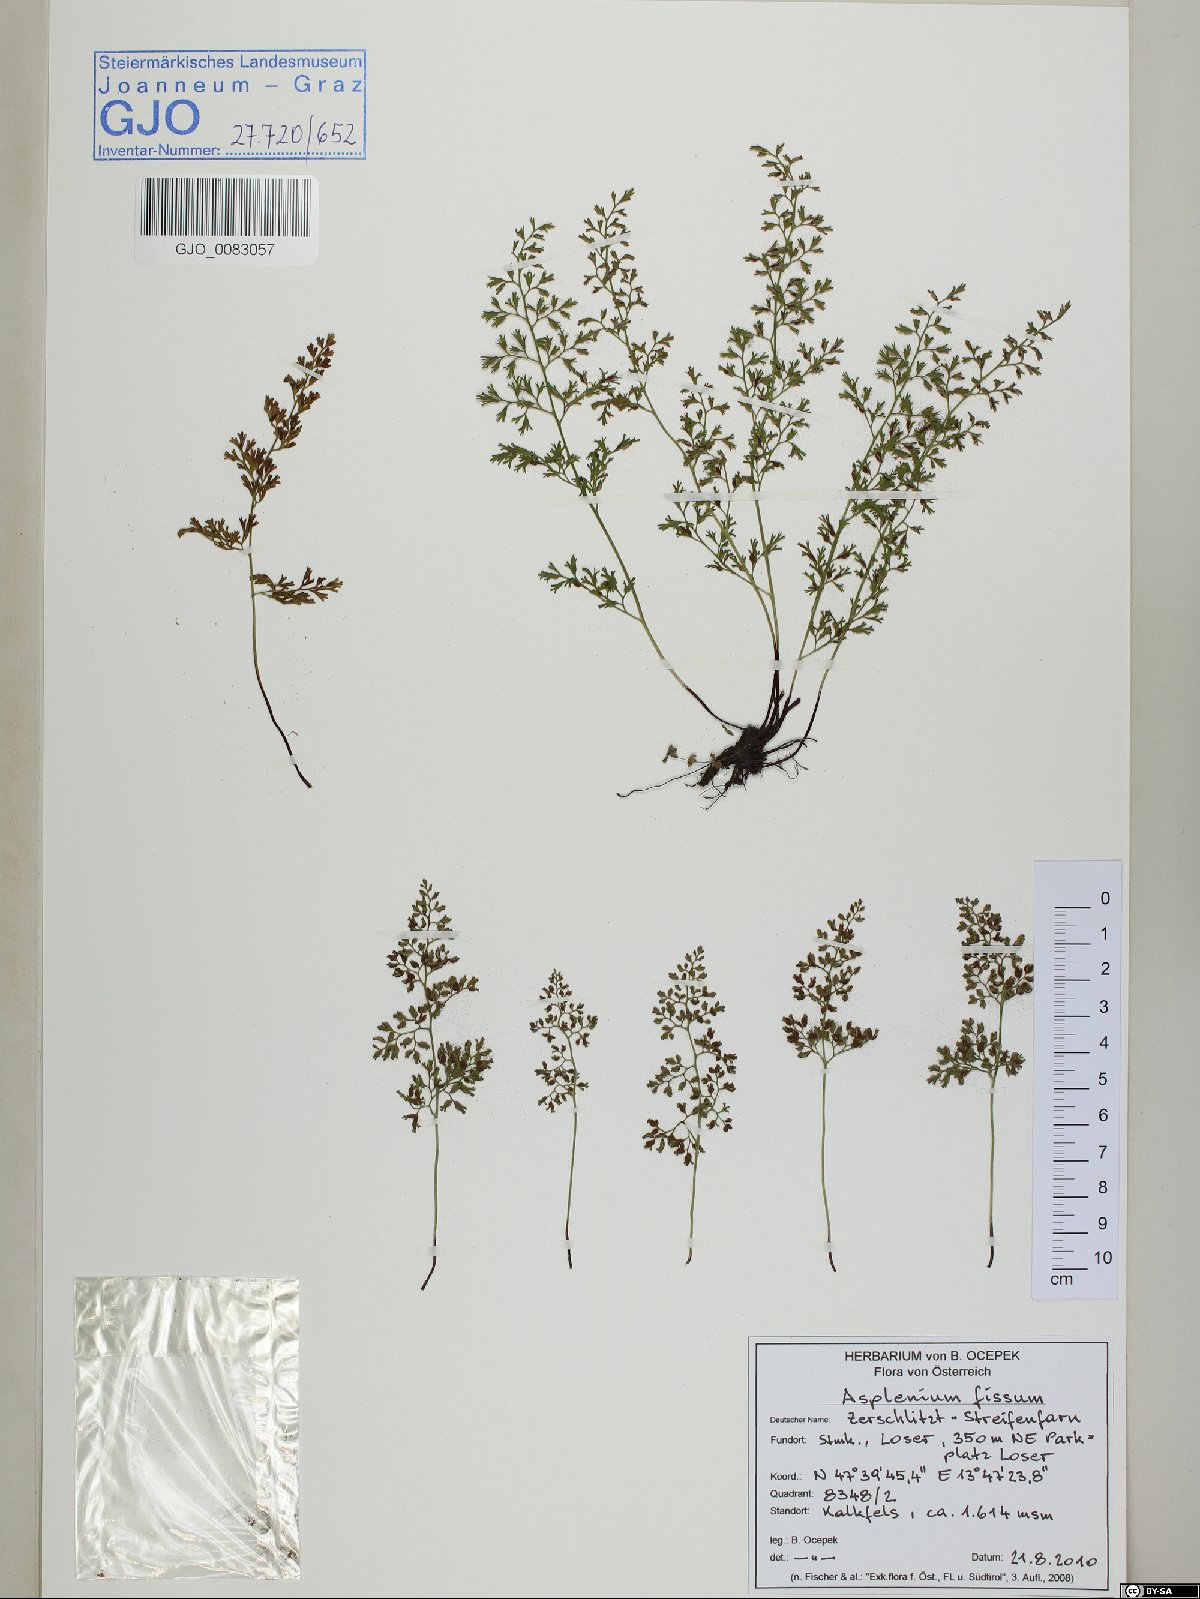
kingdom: Plantae
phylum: Tracheophyta
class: Polypodiopsida
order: Polypodiales
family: Aspleniaceae
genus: Asplenium
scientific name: Asplenium fissum
